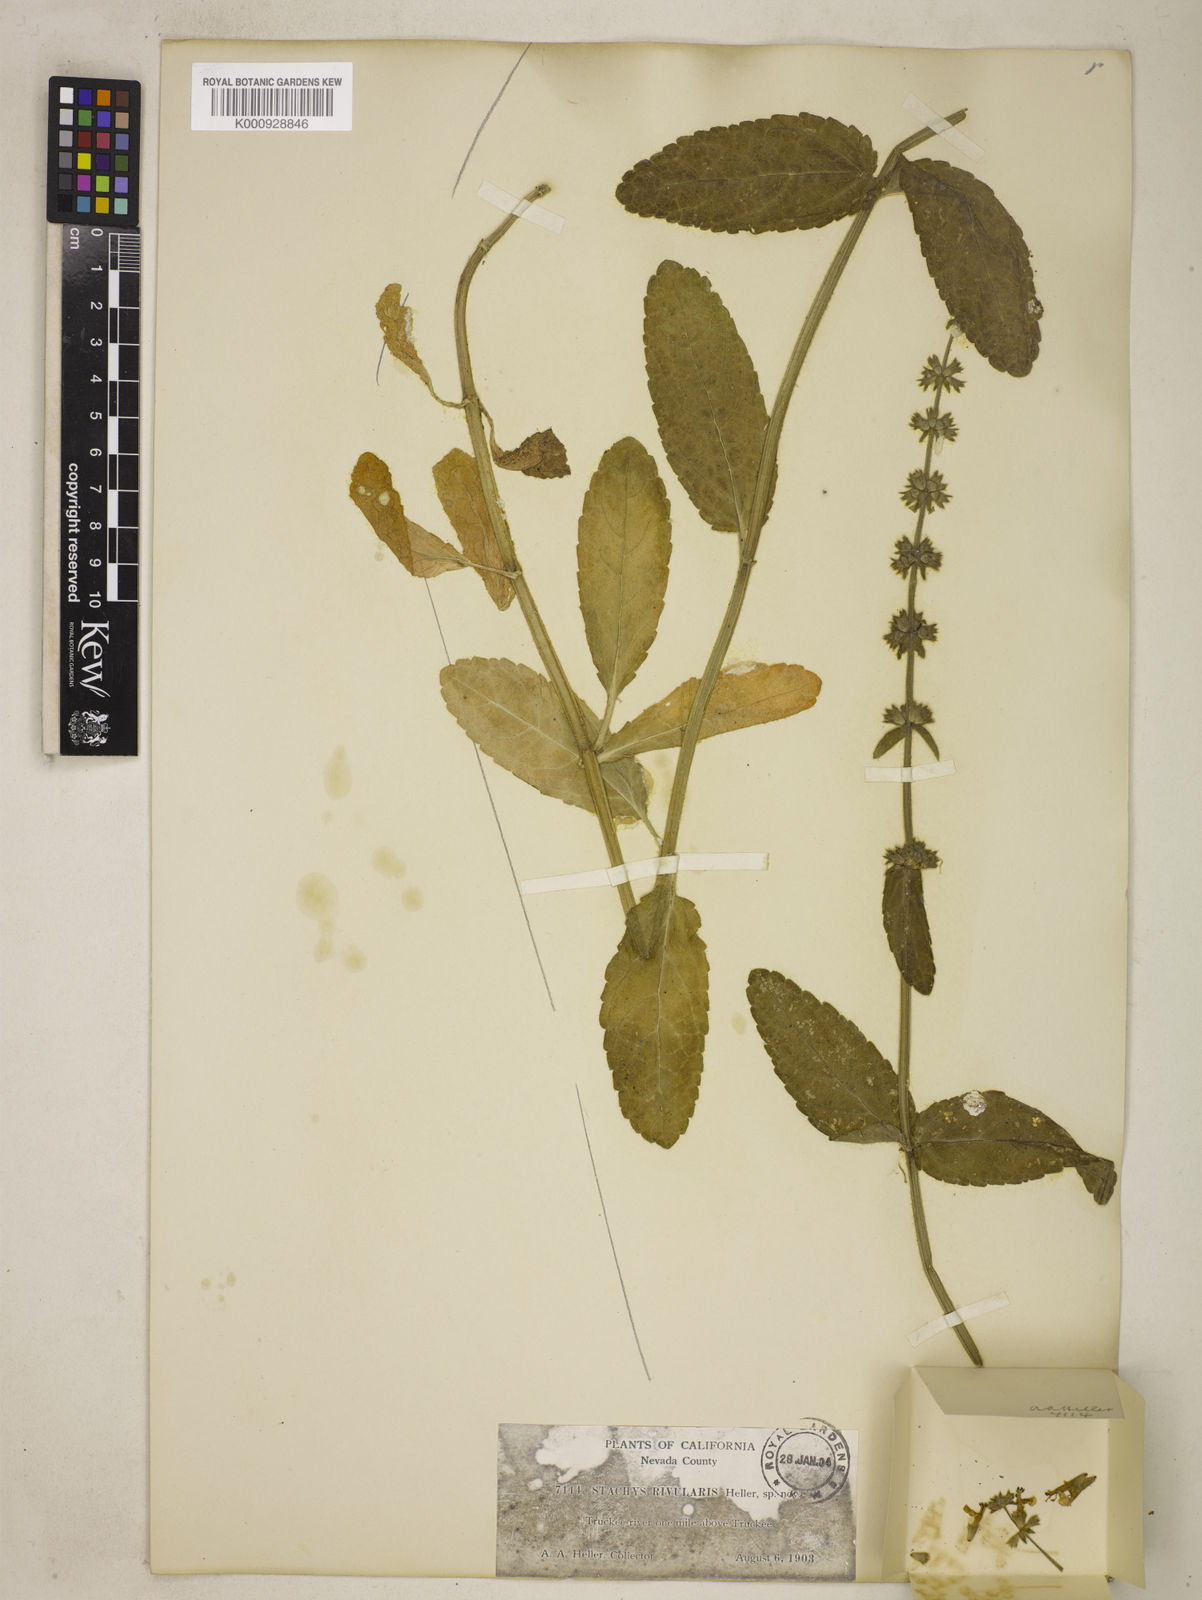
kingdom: Plantae
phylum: Tracheophyta
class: Magnoliopsida
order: Lamiales
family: Lamiaceae
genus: Stachys
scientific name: Stachys rigida
